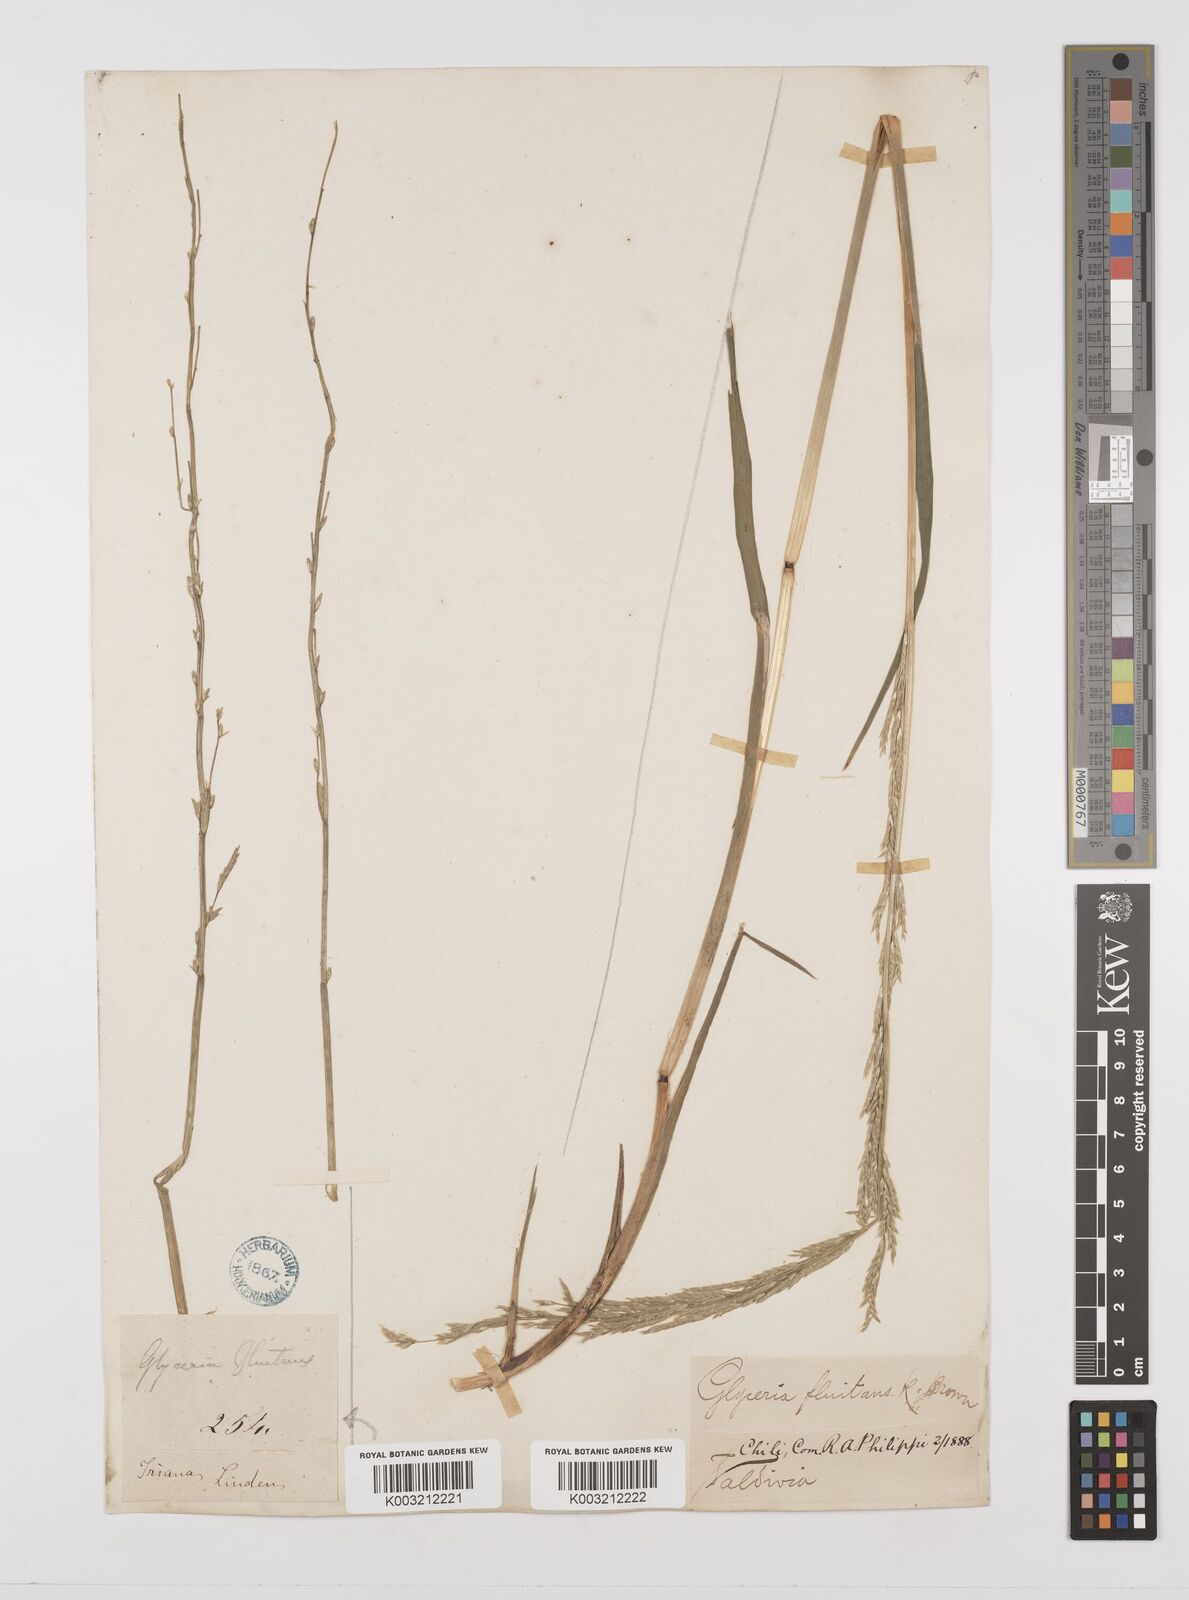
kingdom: Plantae
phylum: Tracheophyta
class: Liliopsida
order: Poales
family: Poaceae
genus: Glyceria
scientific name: Glyceria multiflora
